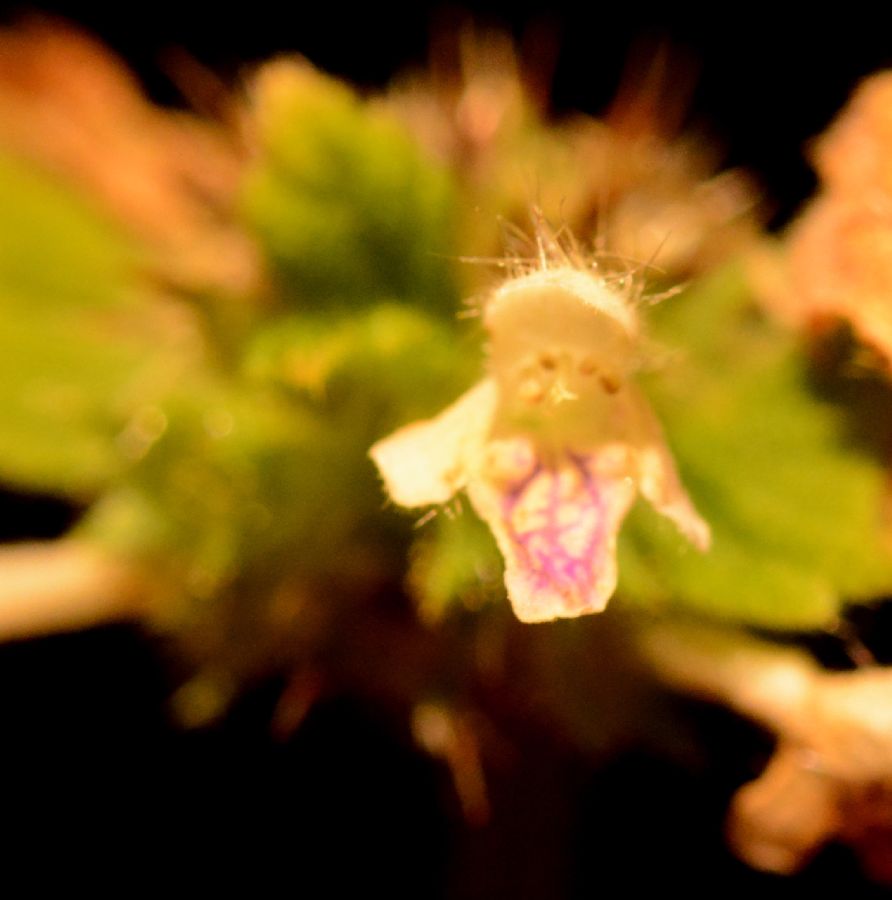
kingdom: Plantae
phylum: Tracheophyta
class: Magnoliopsida
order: Lamiales
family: Lamiaceae
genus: Galeopsis
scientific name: Galeopsis tetrahit
